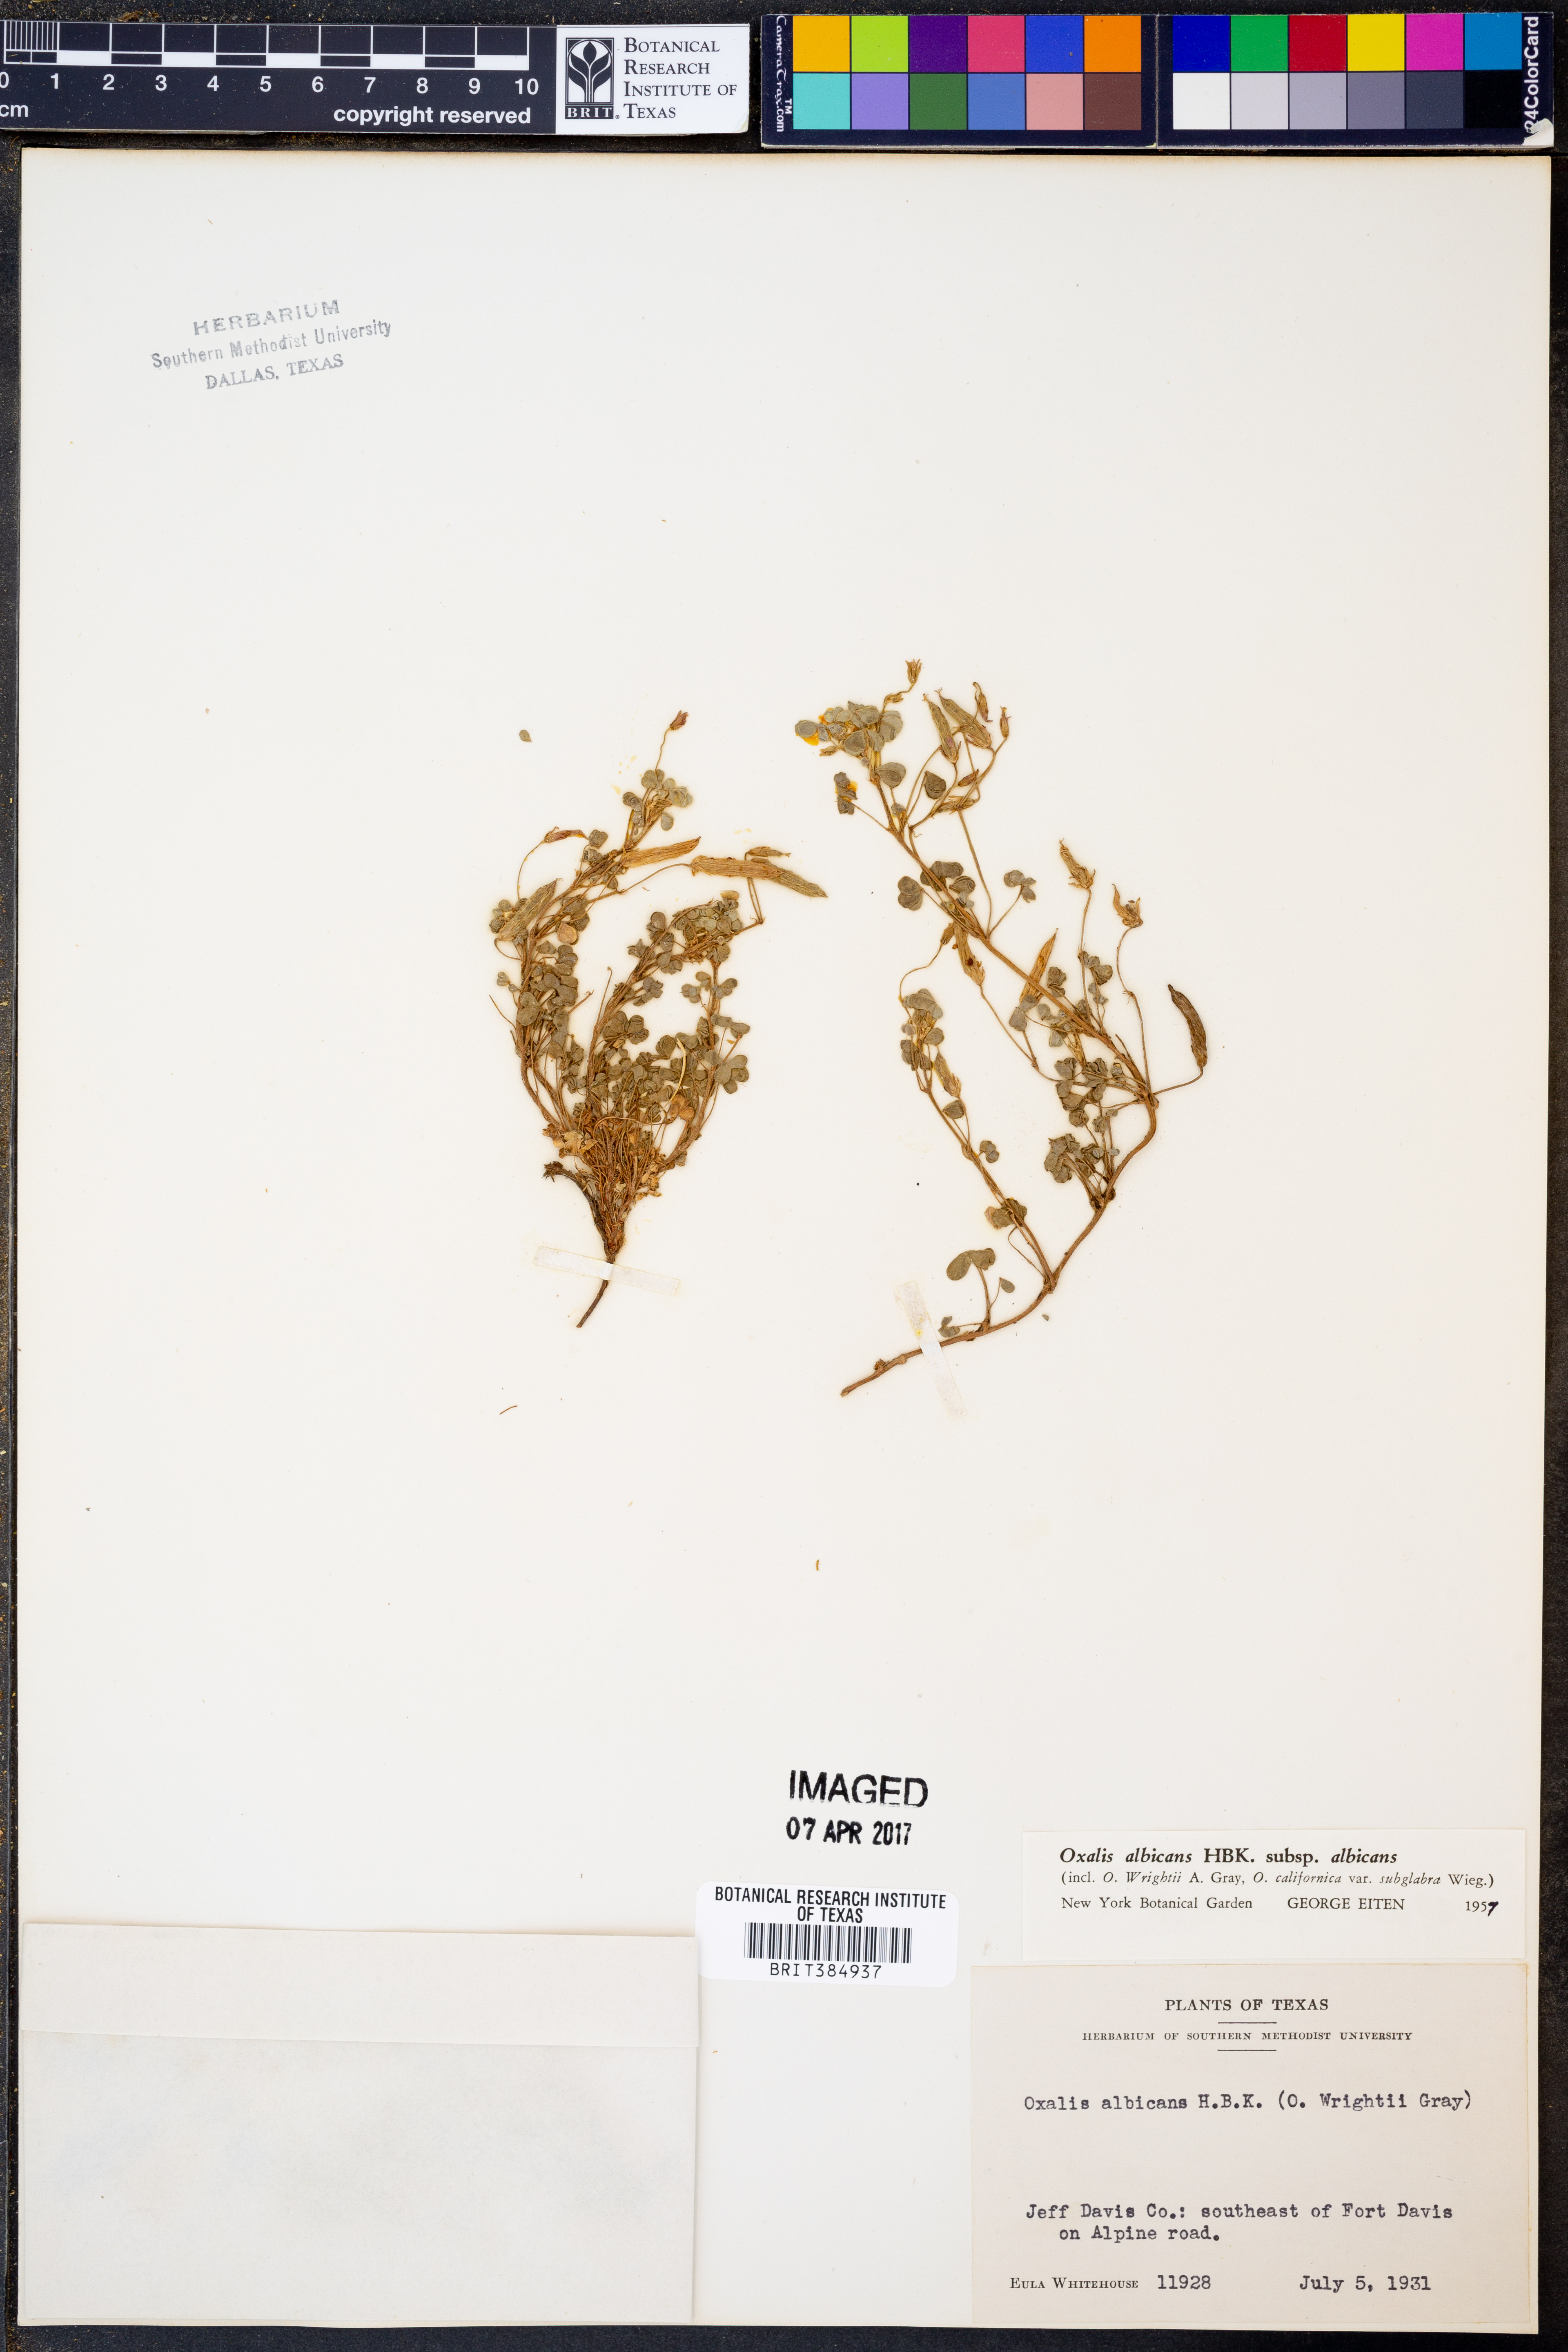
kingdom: Plantae
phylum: Tracheophyta
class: Magnoliopsida
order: Oxalidales
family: Oxalidaceae
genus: Oxalis
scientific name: Oxalis albicans
